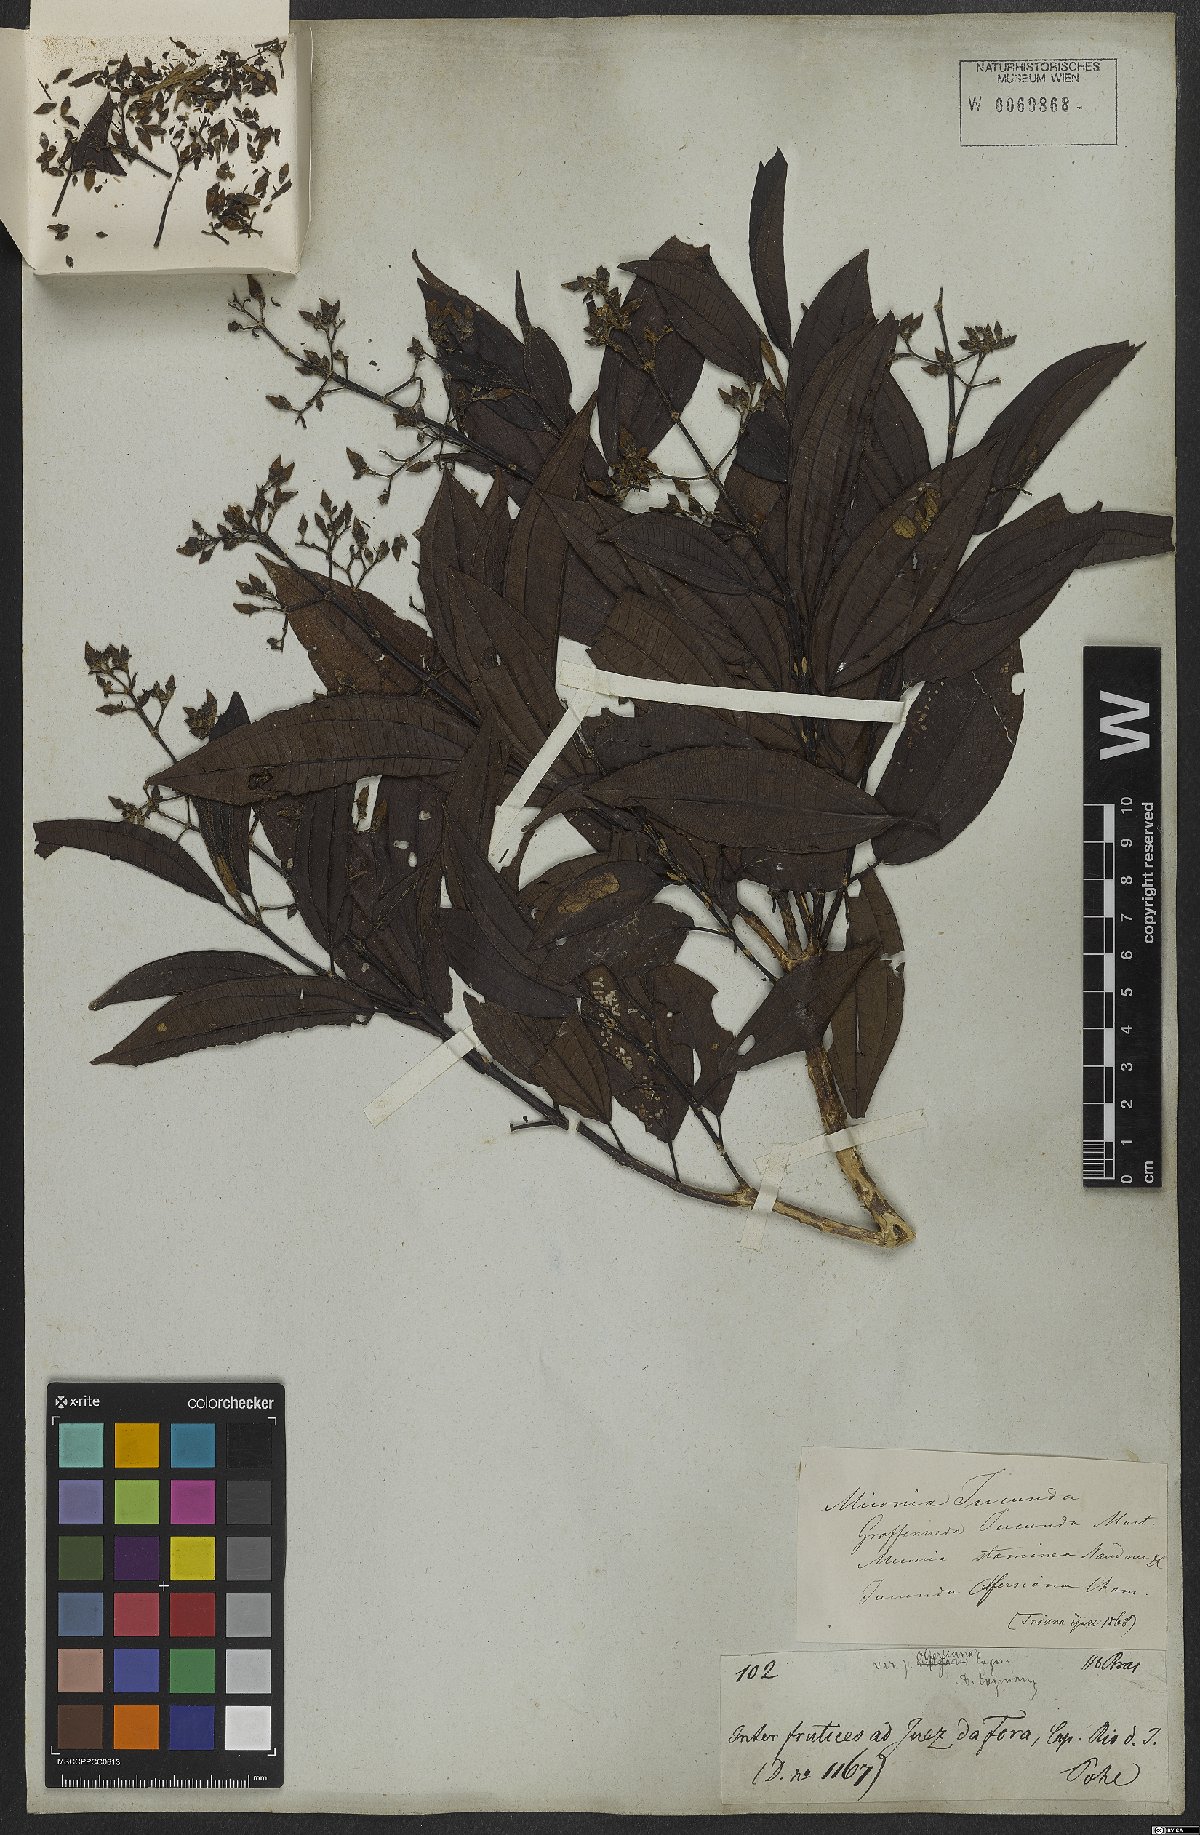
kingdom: Plantae
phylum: Tracheophyta
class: Magnoliopsida
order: Myrtales
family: Melastomataceae
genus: Miconia
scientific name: Miconia jucunda
